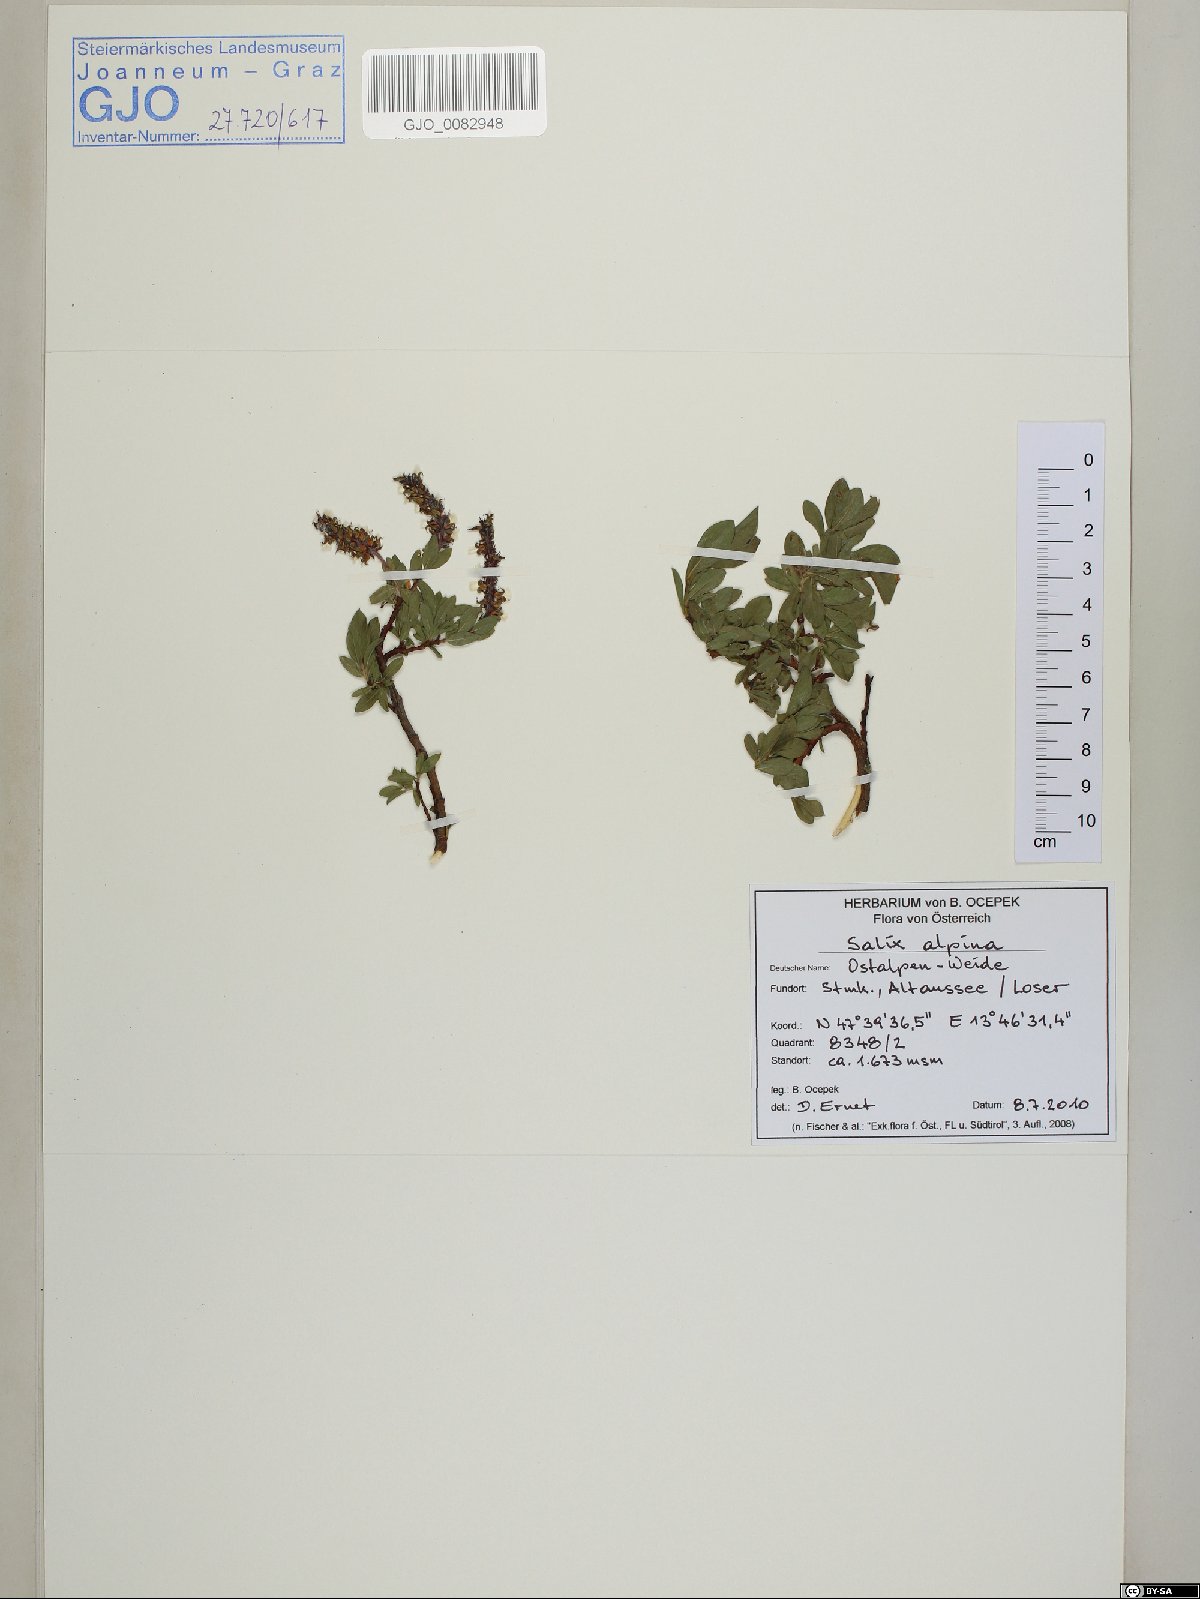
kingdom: Plantae
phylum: Tracheophyta
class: Magnoliopsida
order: Malpighiales
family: Salicaceae
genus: Salix
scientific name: Salix alpina
